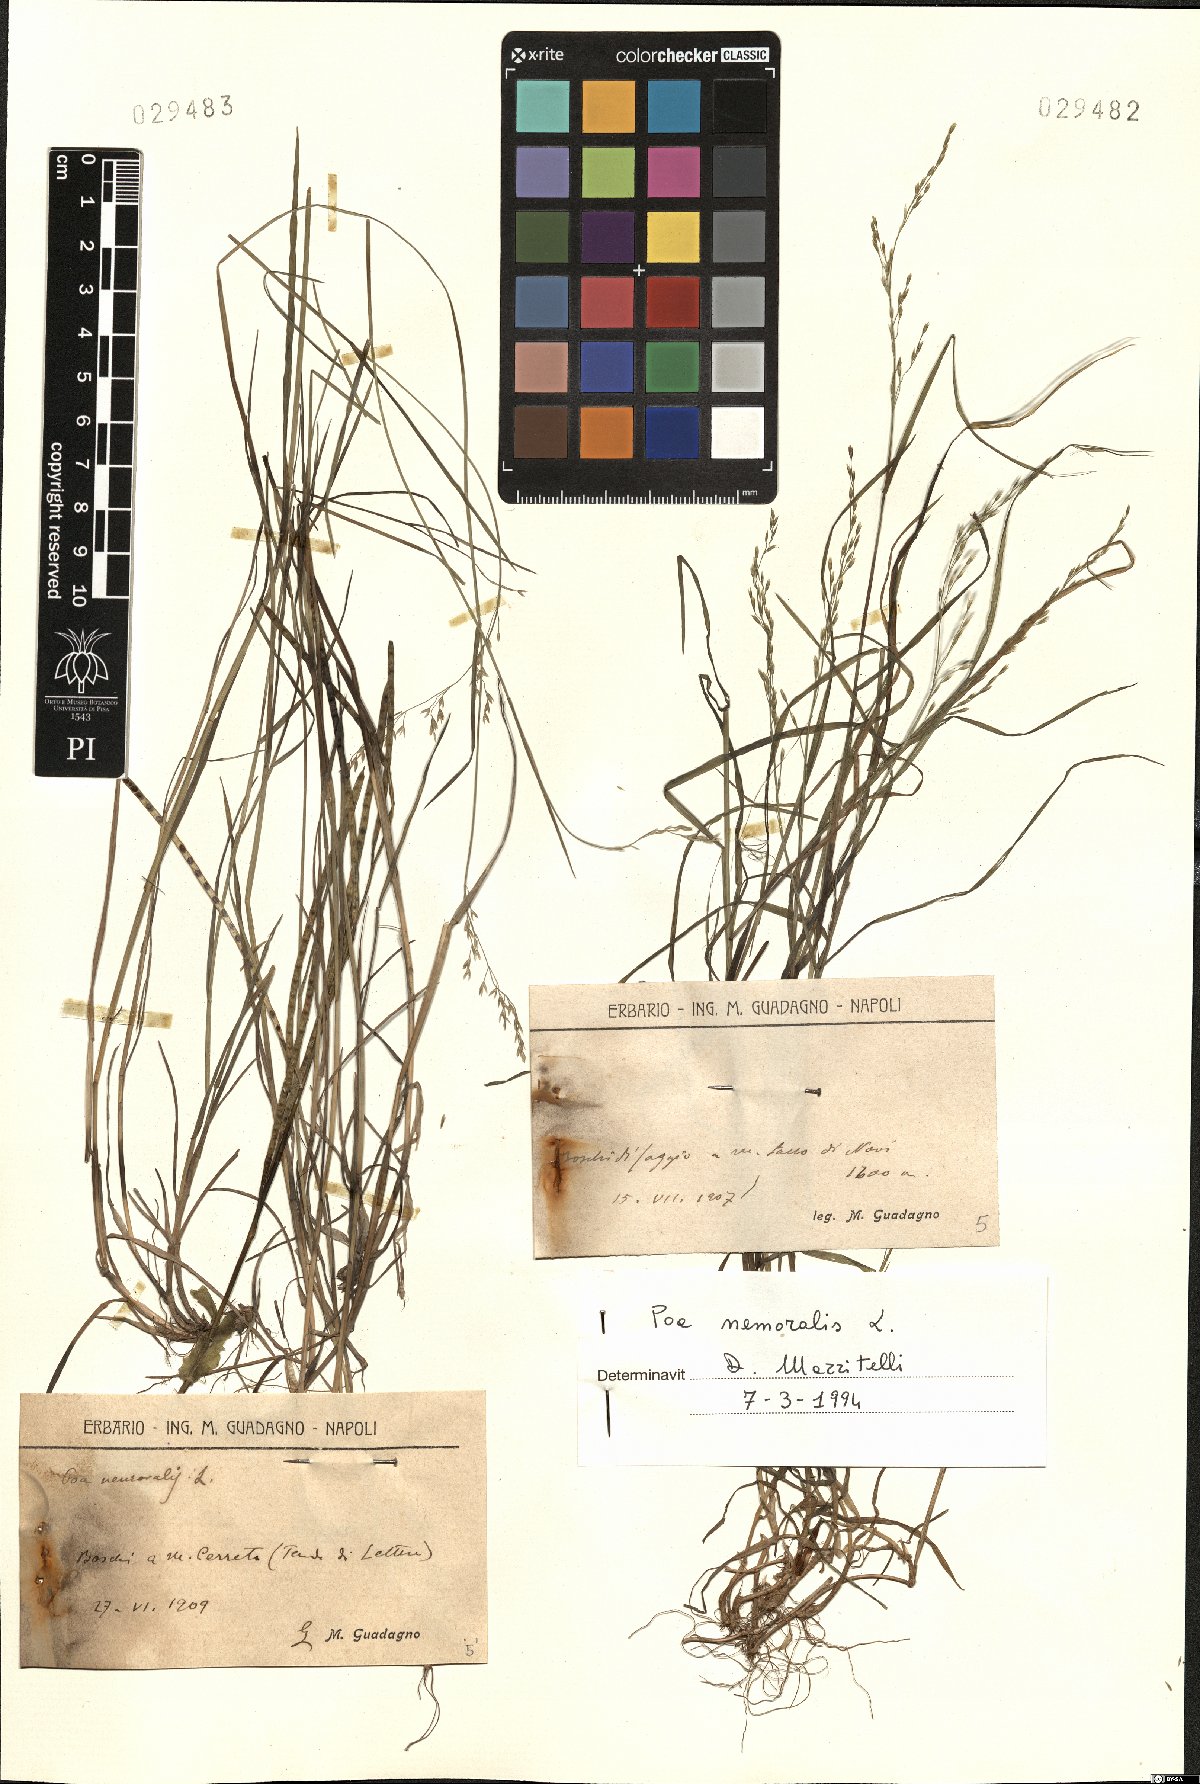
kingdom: Plantae
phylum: Tracheophyta
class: Liliopsida
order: Poales
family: Poaceae
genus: Poa
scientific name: Poa nemoralis
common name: Wood bluegrass
